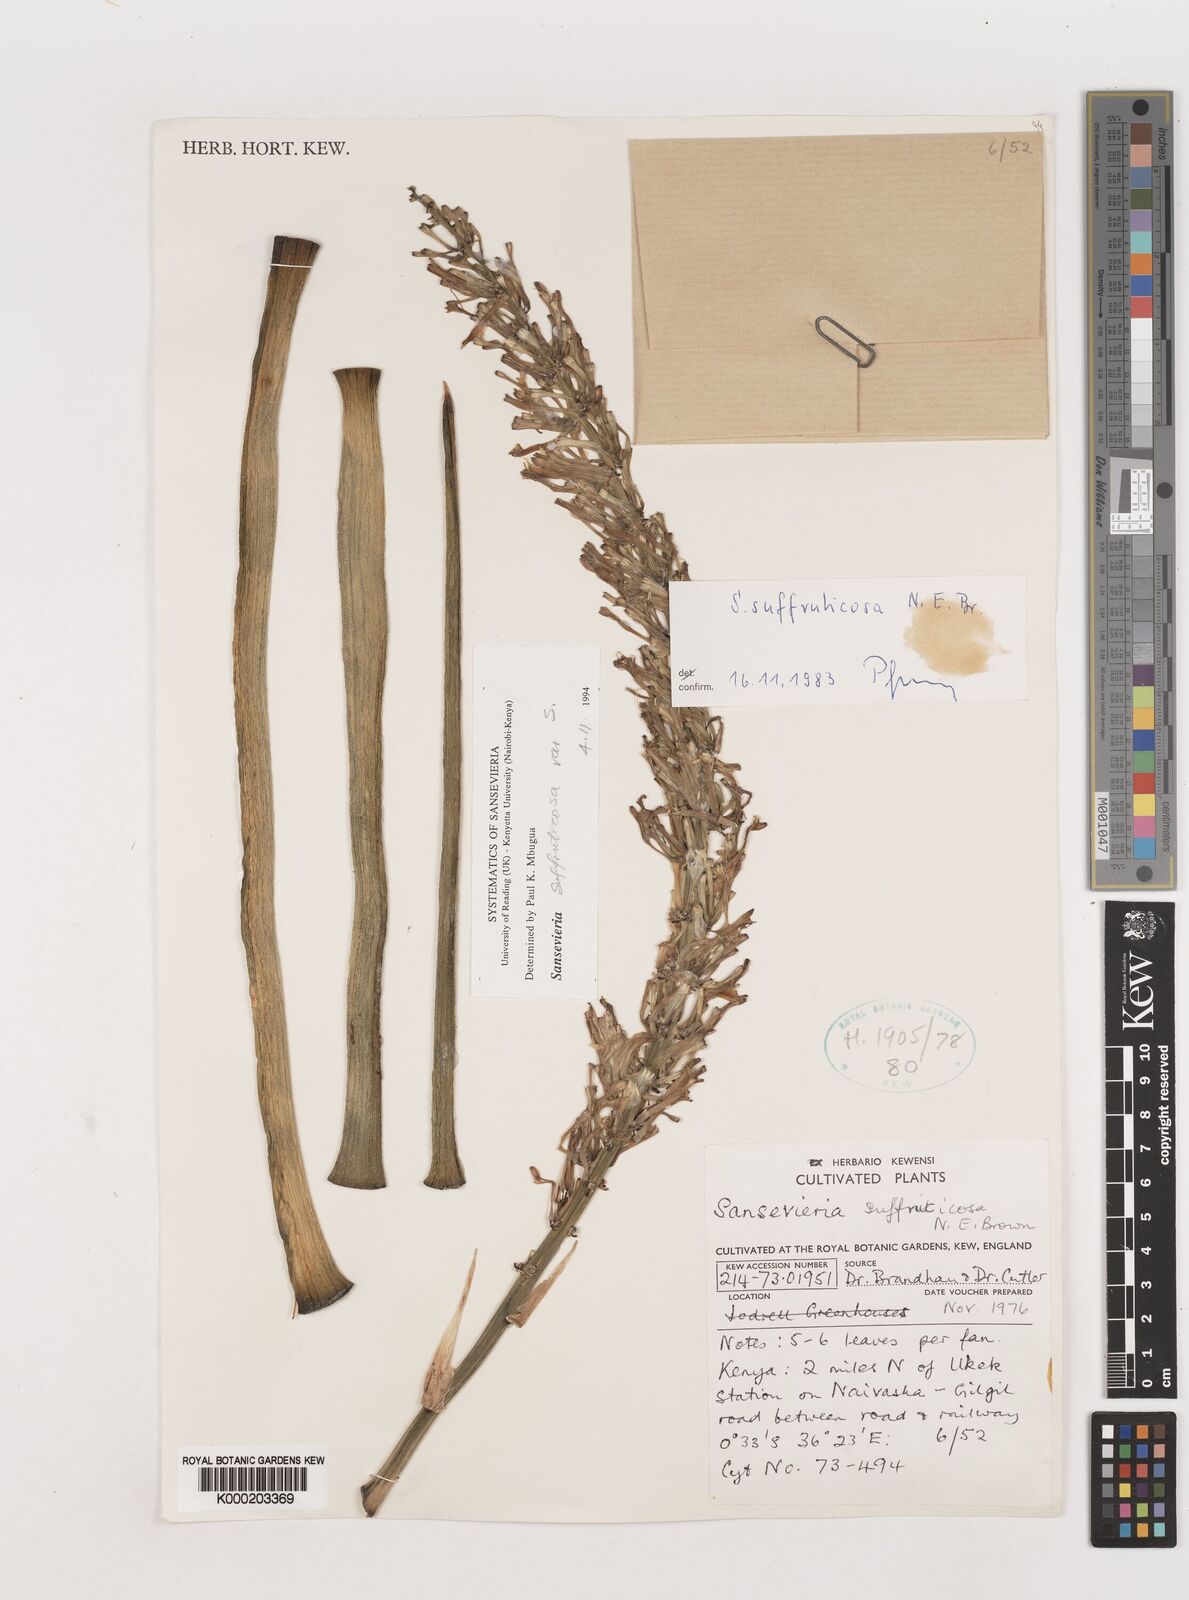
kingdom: Plantae
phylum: Tracheophyta
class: Liliopsida
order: Asparagales
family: Asparagaceae
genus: Dracaena
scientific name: Dracaena suffruticosa
